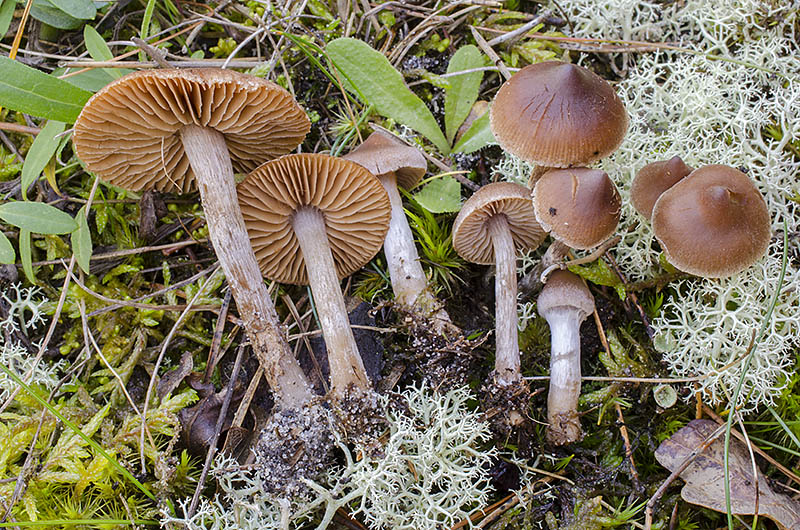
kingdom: Fungi
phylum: Basidiomycota
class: Agaricomycetes
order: Agaricales
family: Cortinariaceae
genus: Cortinarius
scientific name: Cortinarius comptulus
